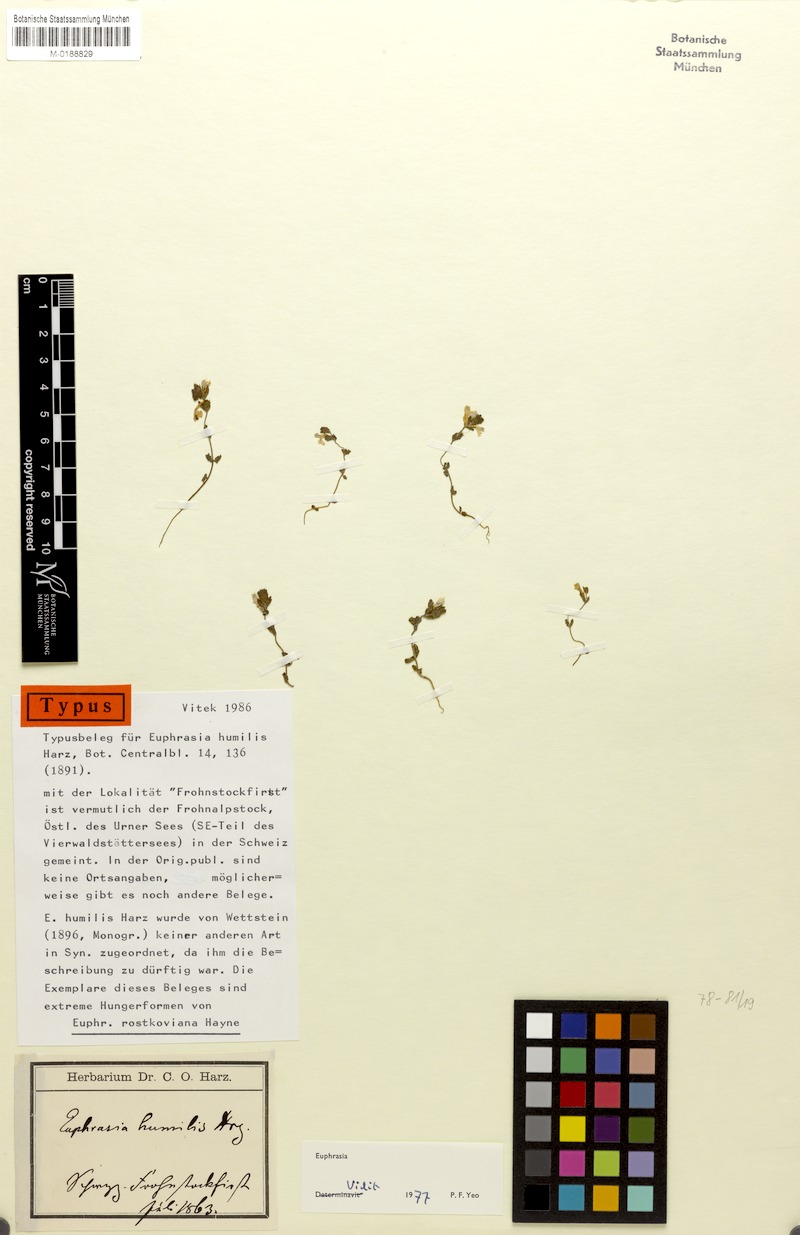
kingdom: Plantae
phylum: Tracheophyta
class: Magnoliopsida
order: Lamiales
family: Orobanchaceae
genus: Euphrasia
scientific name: Euphrasia officinalis
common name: Eyebright
